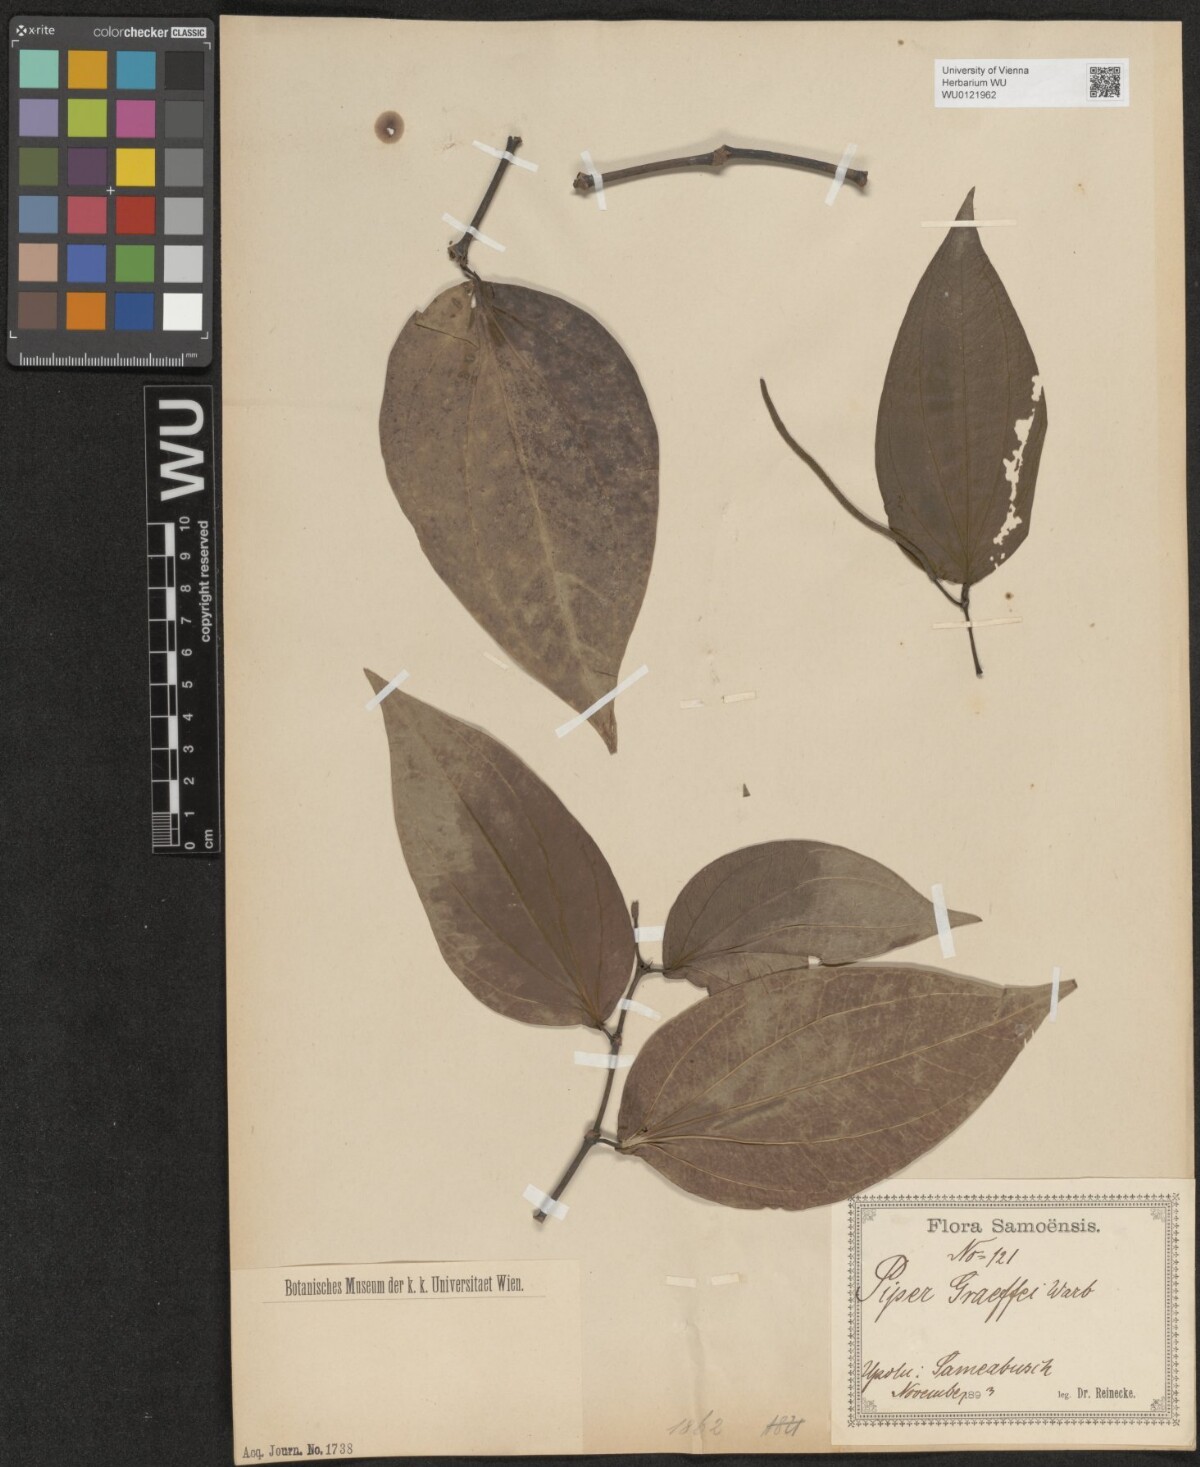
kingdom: Plantae
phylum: Tracheophyta
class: Magnoliopsida
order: Piperales
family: Piperaceae
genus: Piper
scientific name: Piper graeffei
